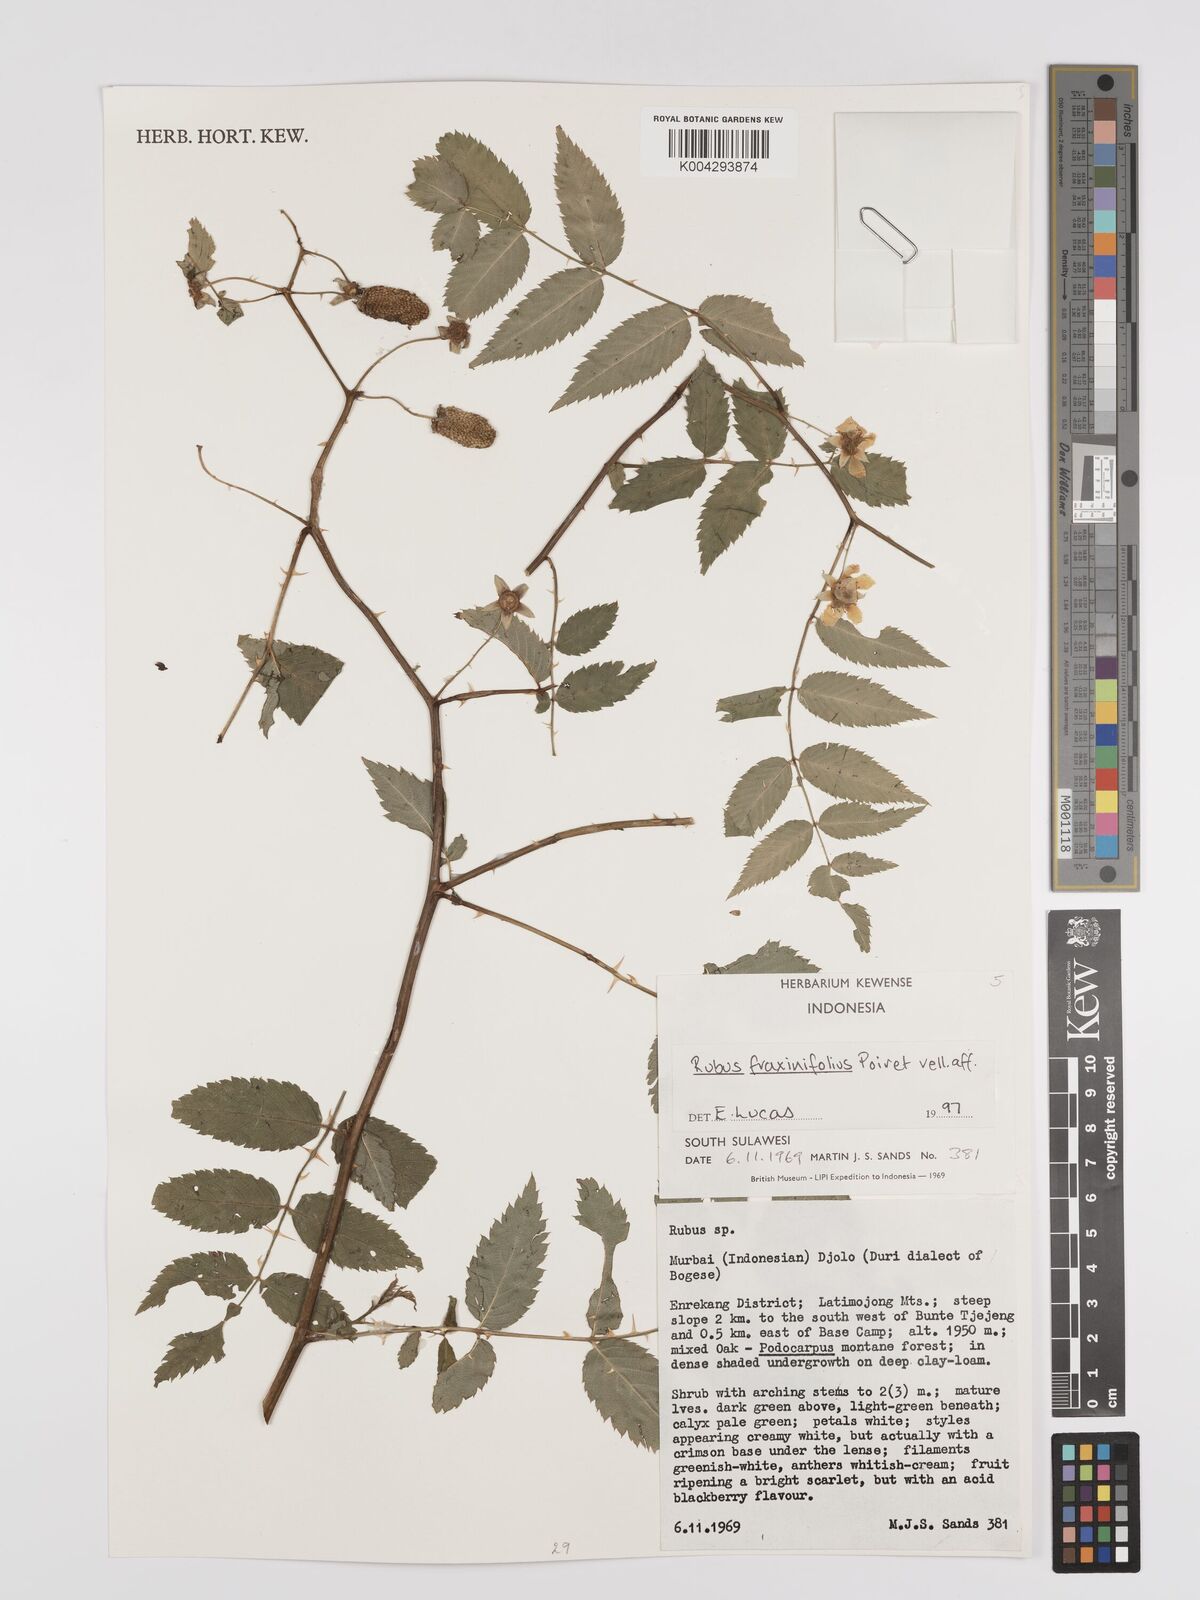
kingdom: Plantae
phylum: Tracheophyta
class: Magnoliopsida
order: Rosales
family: Rosaceae
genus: Rubus
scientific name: Rubus fraxinifolius
